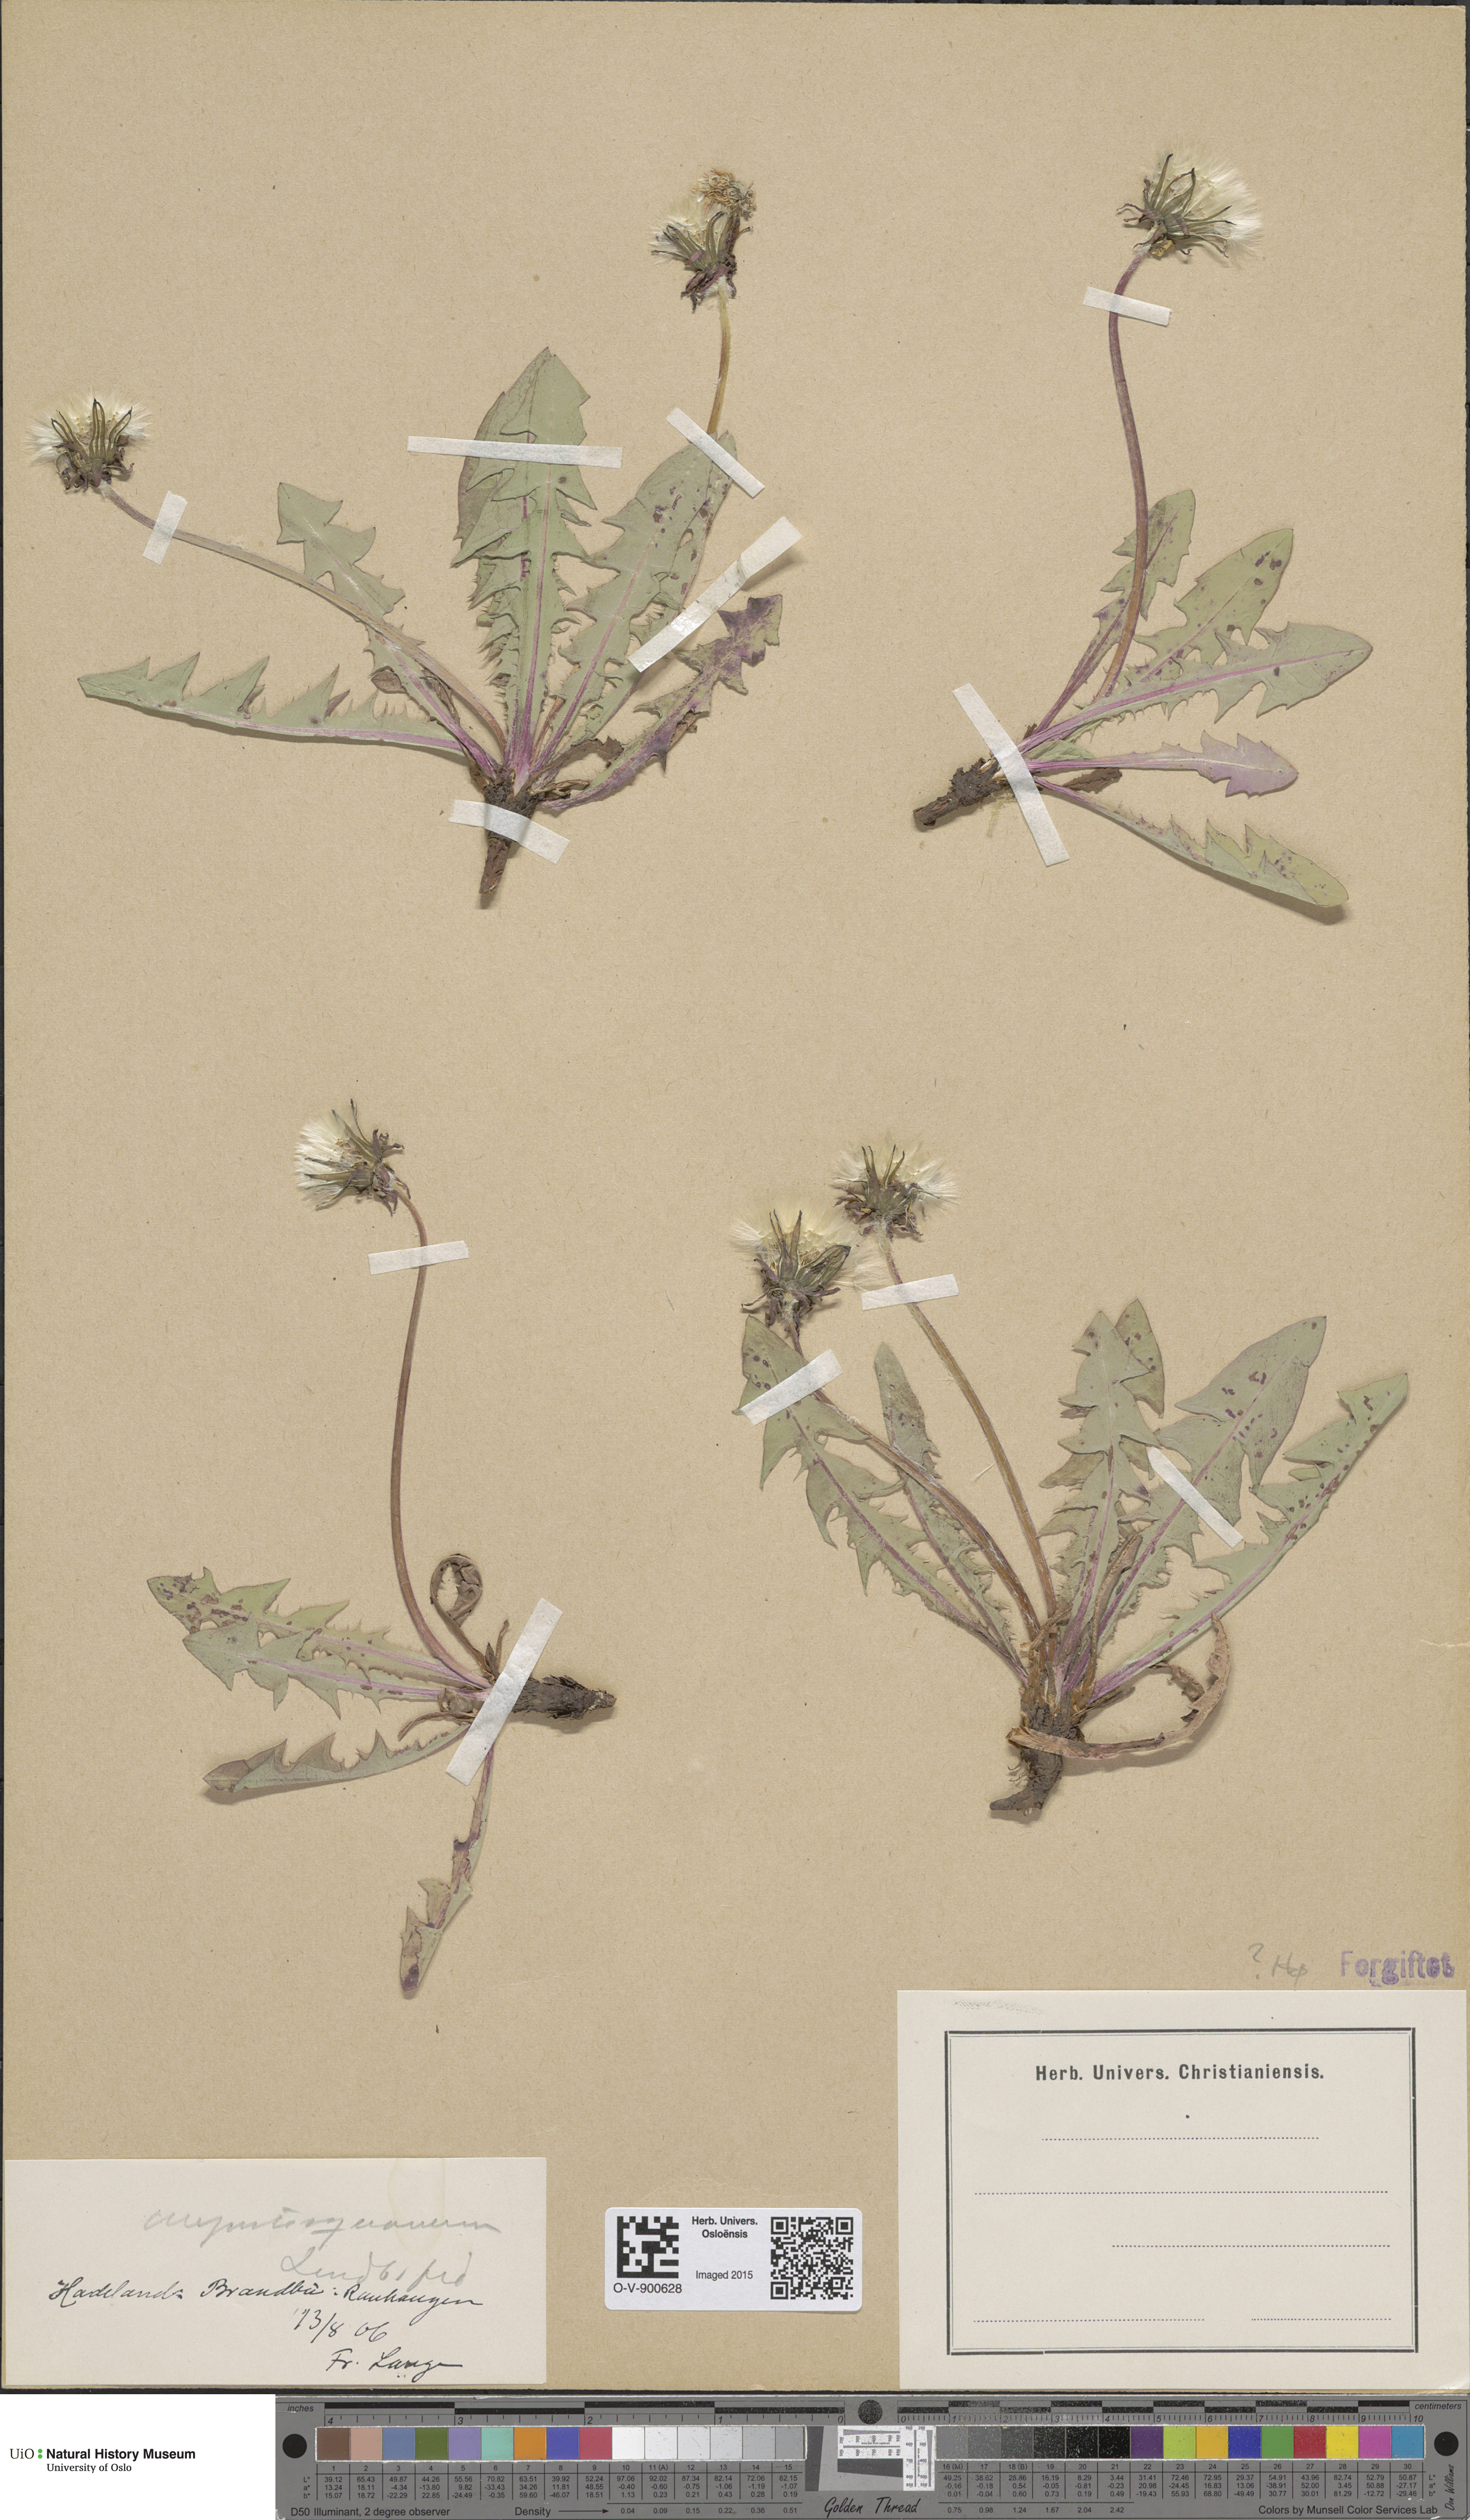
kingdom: Plantae
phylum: Tracheophyta
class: Magnoliopsida
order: Asterales
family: Asteraceae
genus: Taraxacum
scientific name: Taraxacum angustisquameum
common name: Multilobed dandelion
